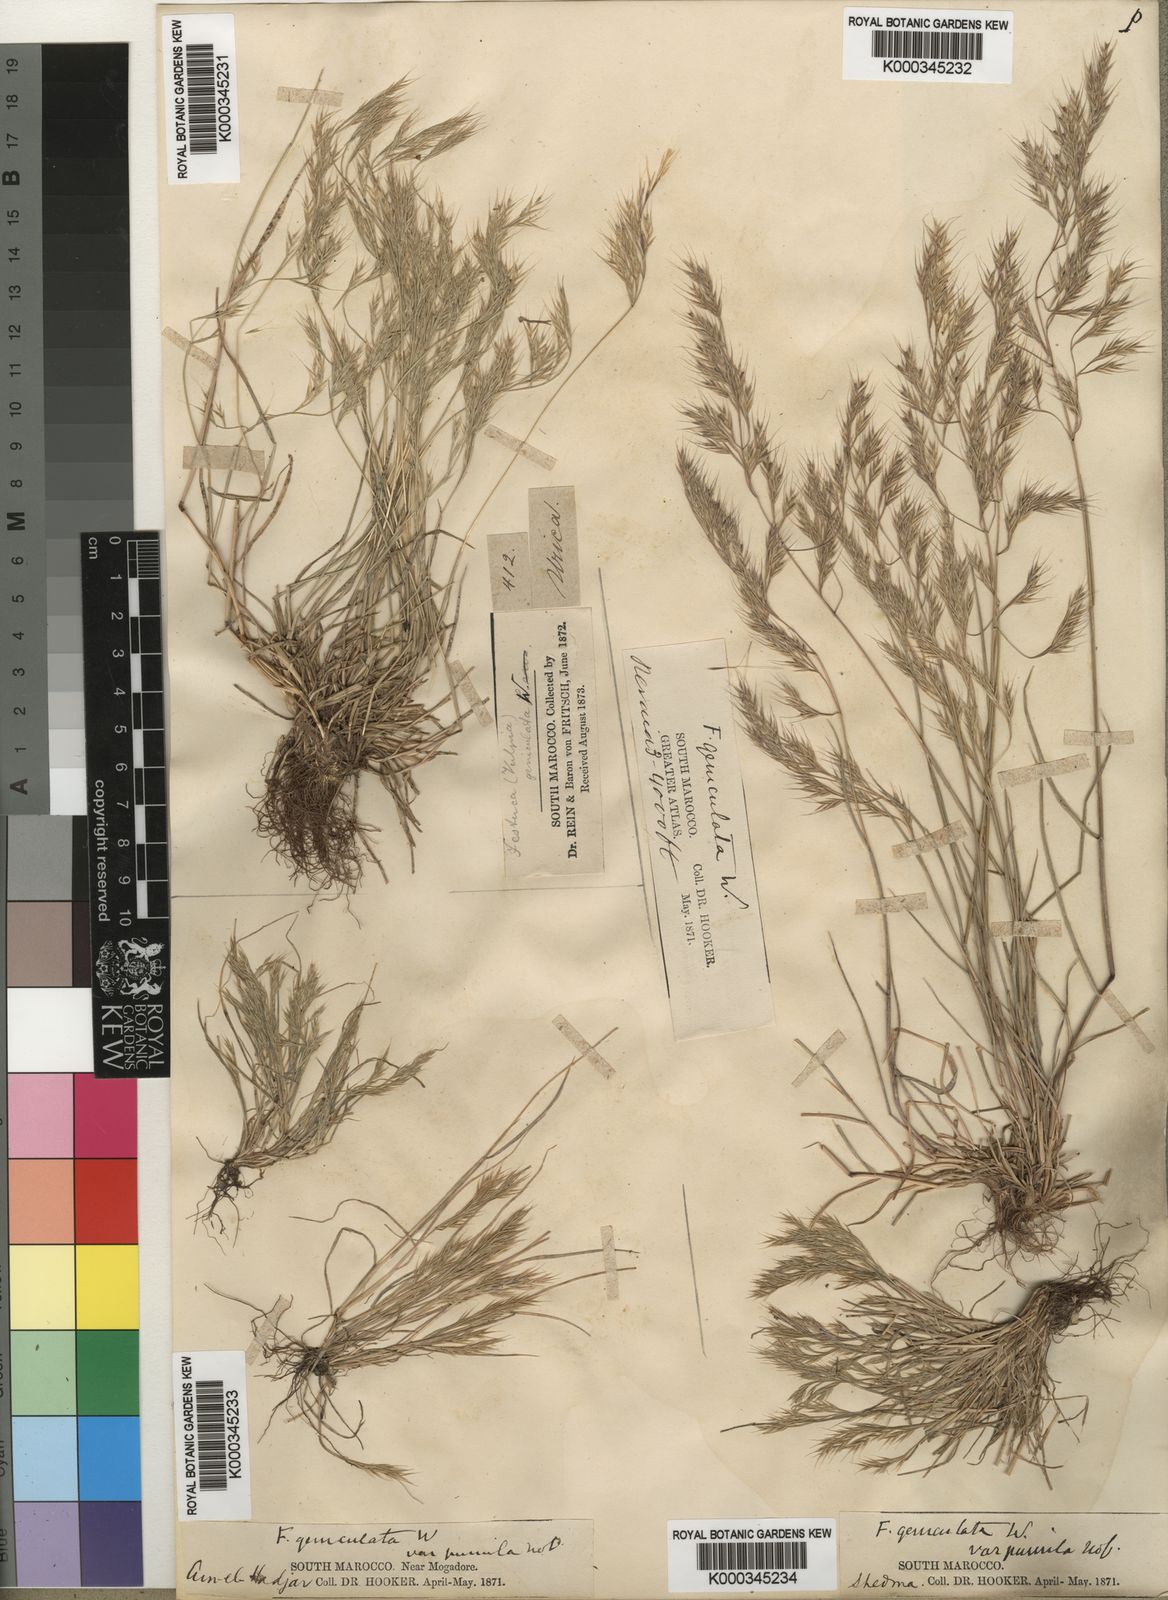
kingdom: Plantae
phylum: Tracheophyta
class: Liliopsida
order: Poales
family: Poaceae
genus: Festuca
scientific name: Festuca geniculata
